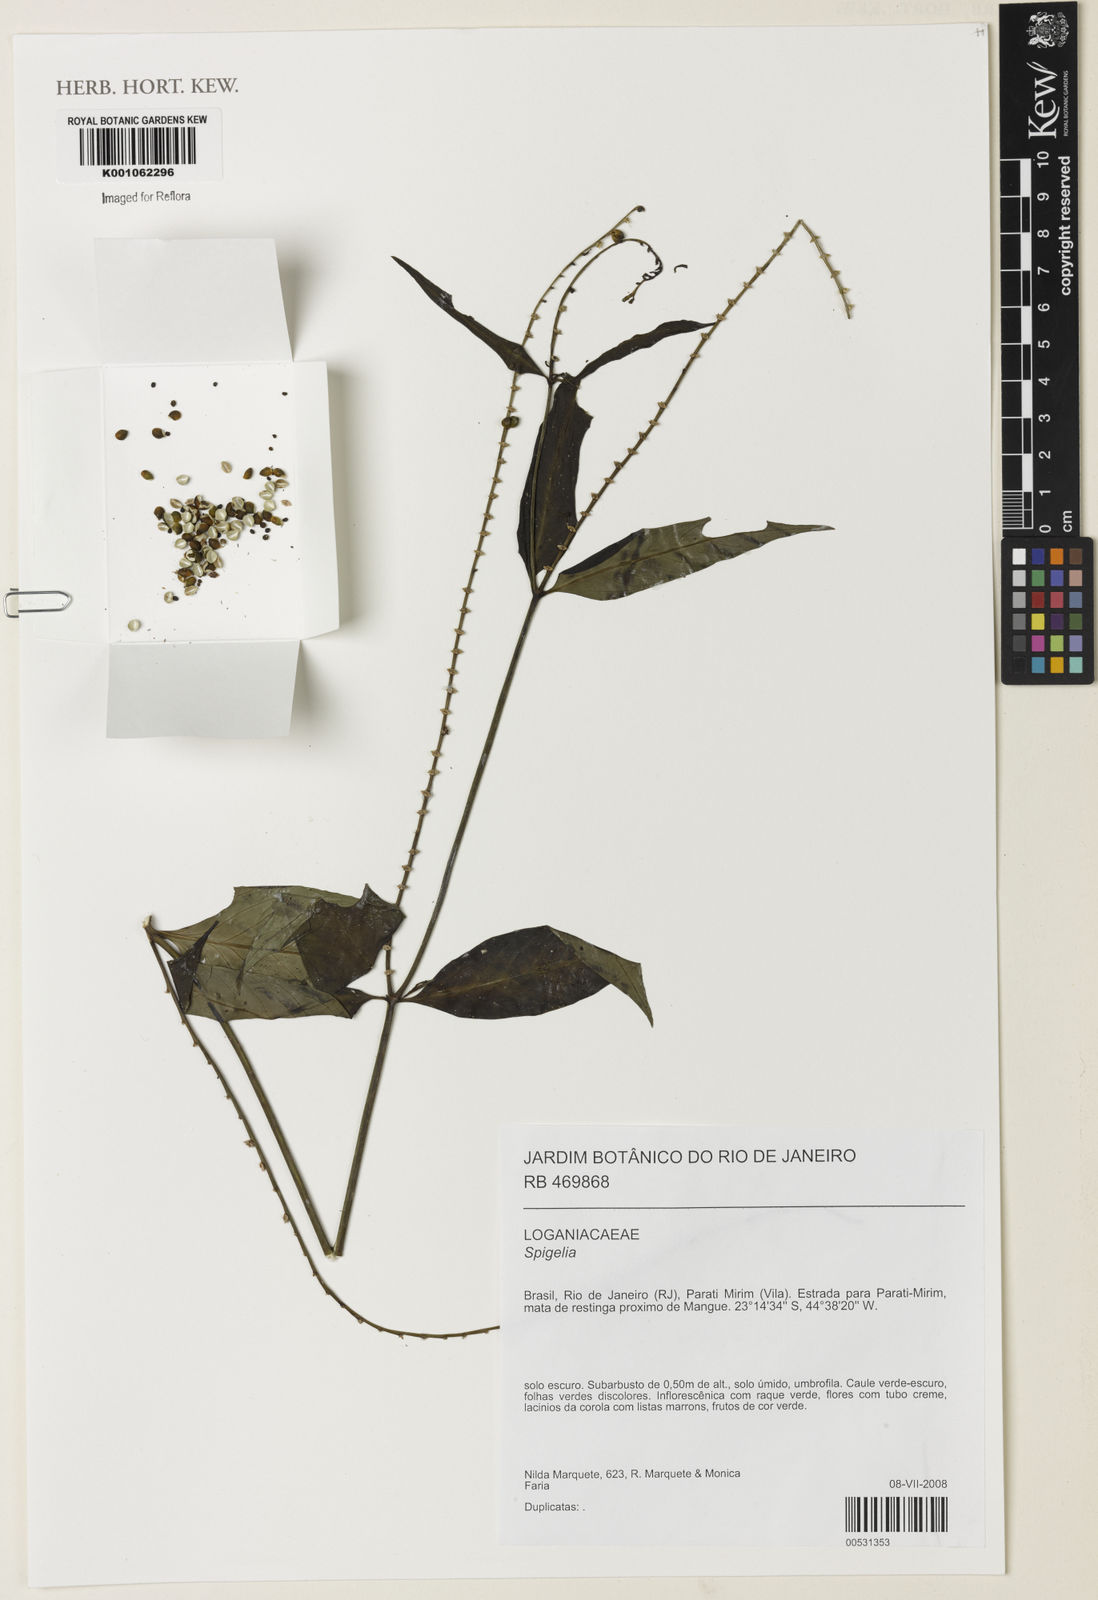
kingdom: Plantae
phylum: Tracheophyta
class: Magnoliopsida
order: Gentianales
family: Loganiaceae
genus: Spigelia
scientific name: Spigelia
